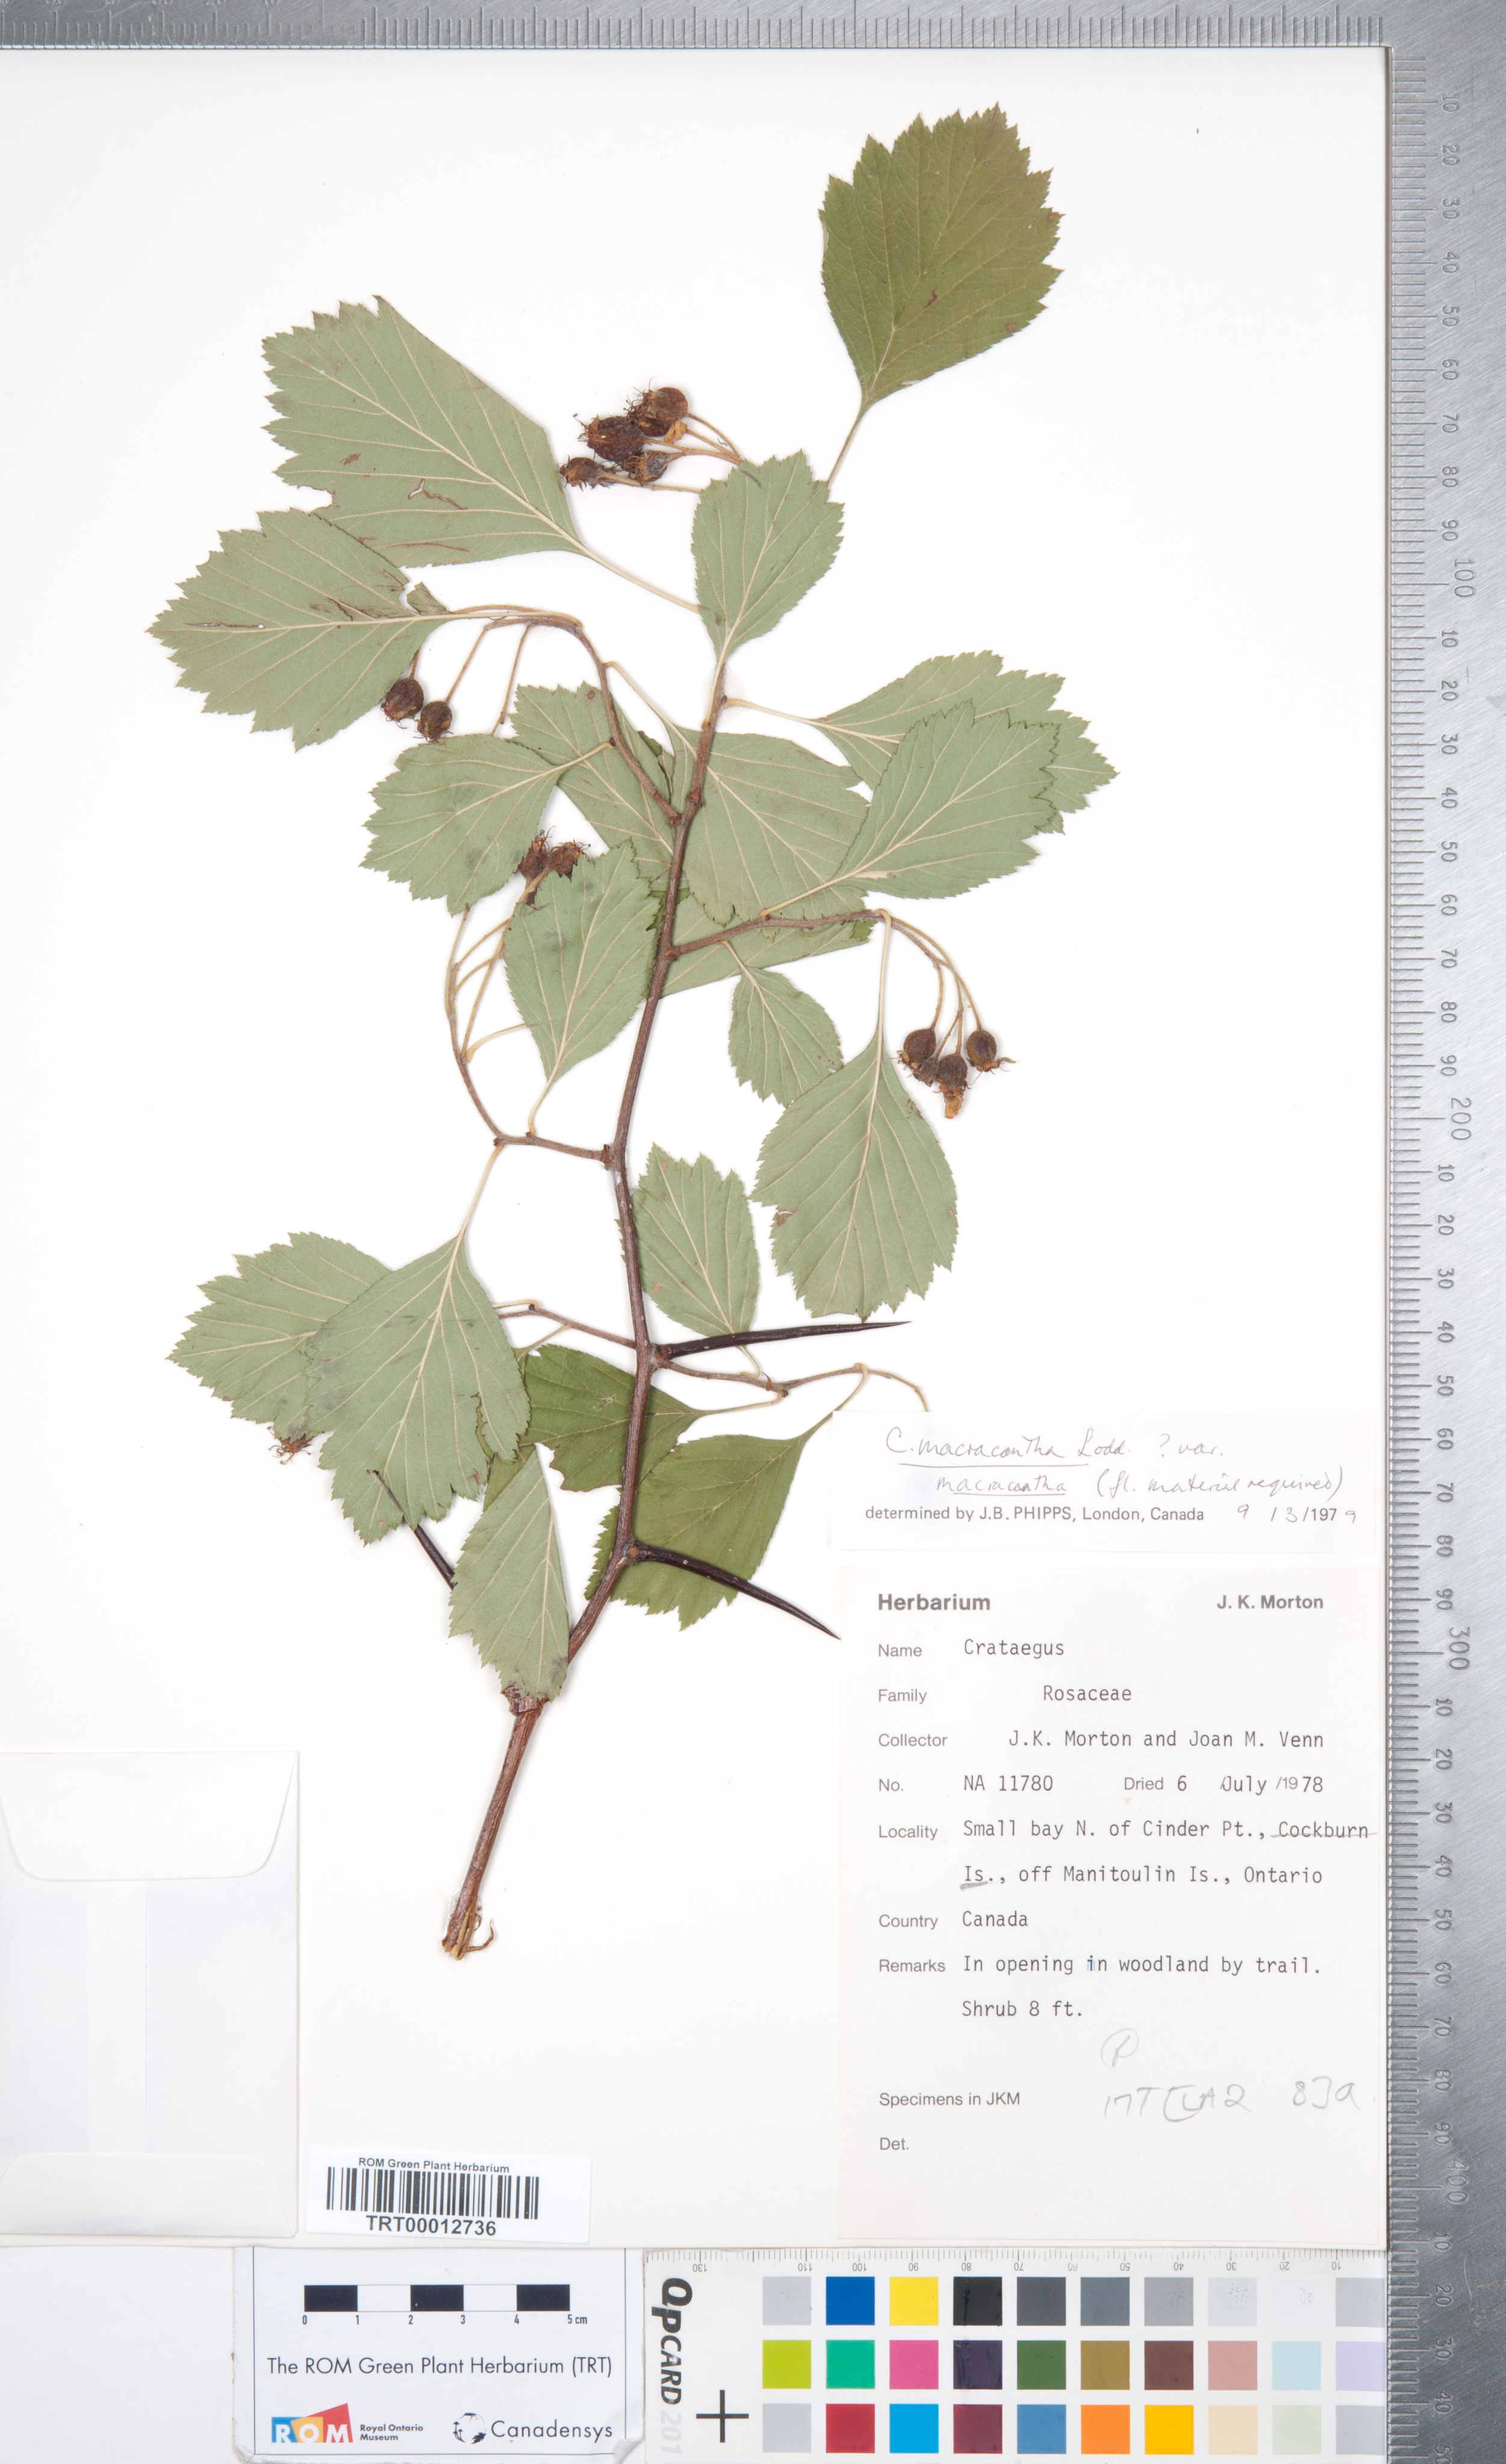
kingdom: Plantae
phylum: Tracheophyta
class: Magnoliopsida
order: Rosales
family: Rosaceae
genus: Crataegus
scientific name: Crataegus macracantha
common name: Large-thorn hawthorn
